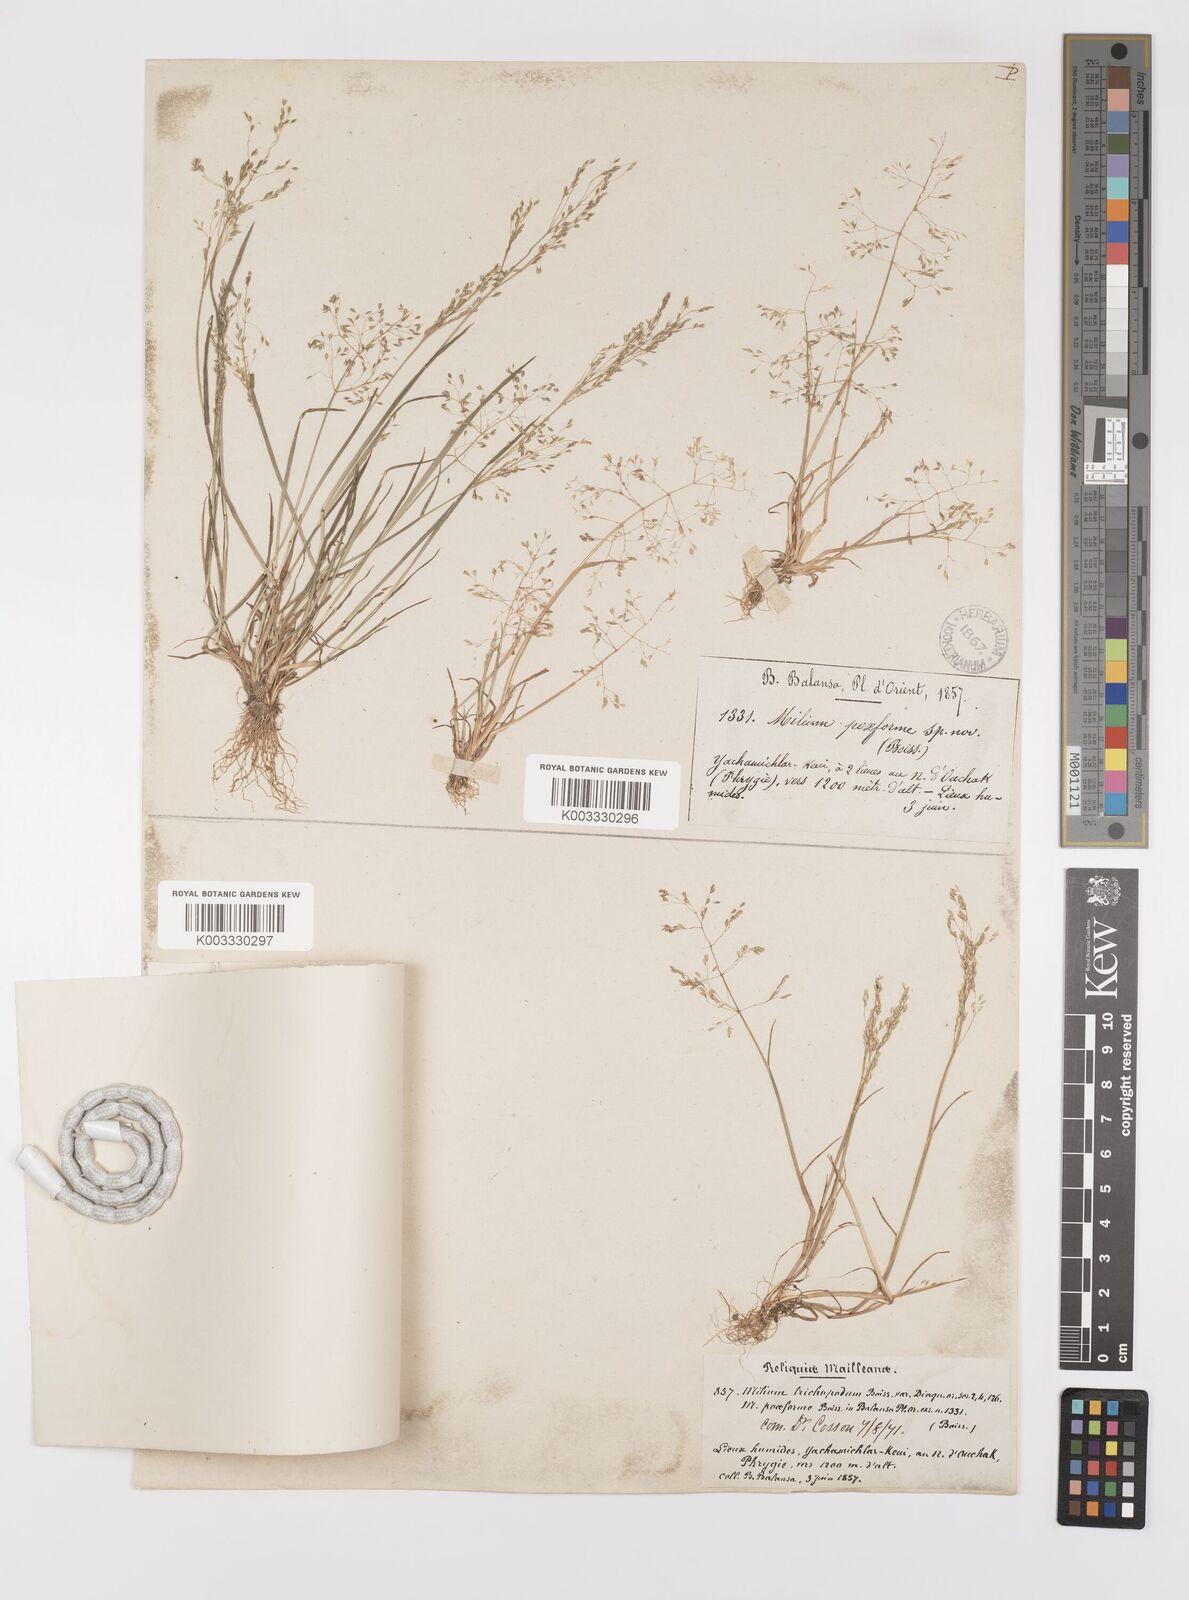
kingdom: Plantae
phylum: Tracheophyta
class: Liliopsida
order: Poales
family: Poaceae
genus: Colpodium
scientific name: Colpodium trichopodum
